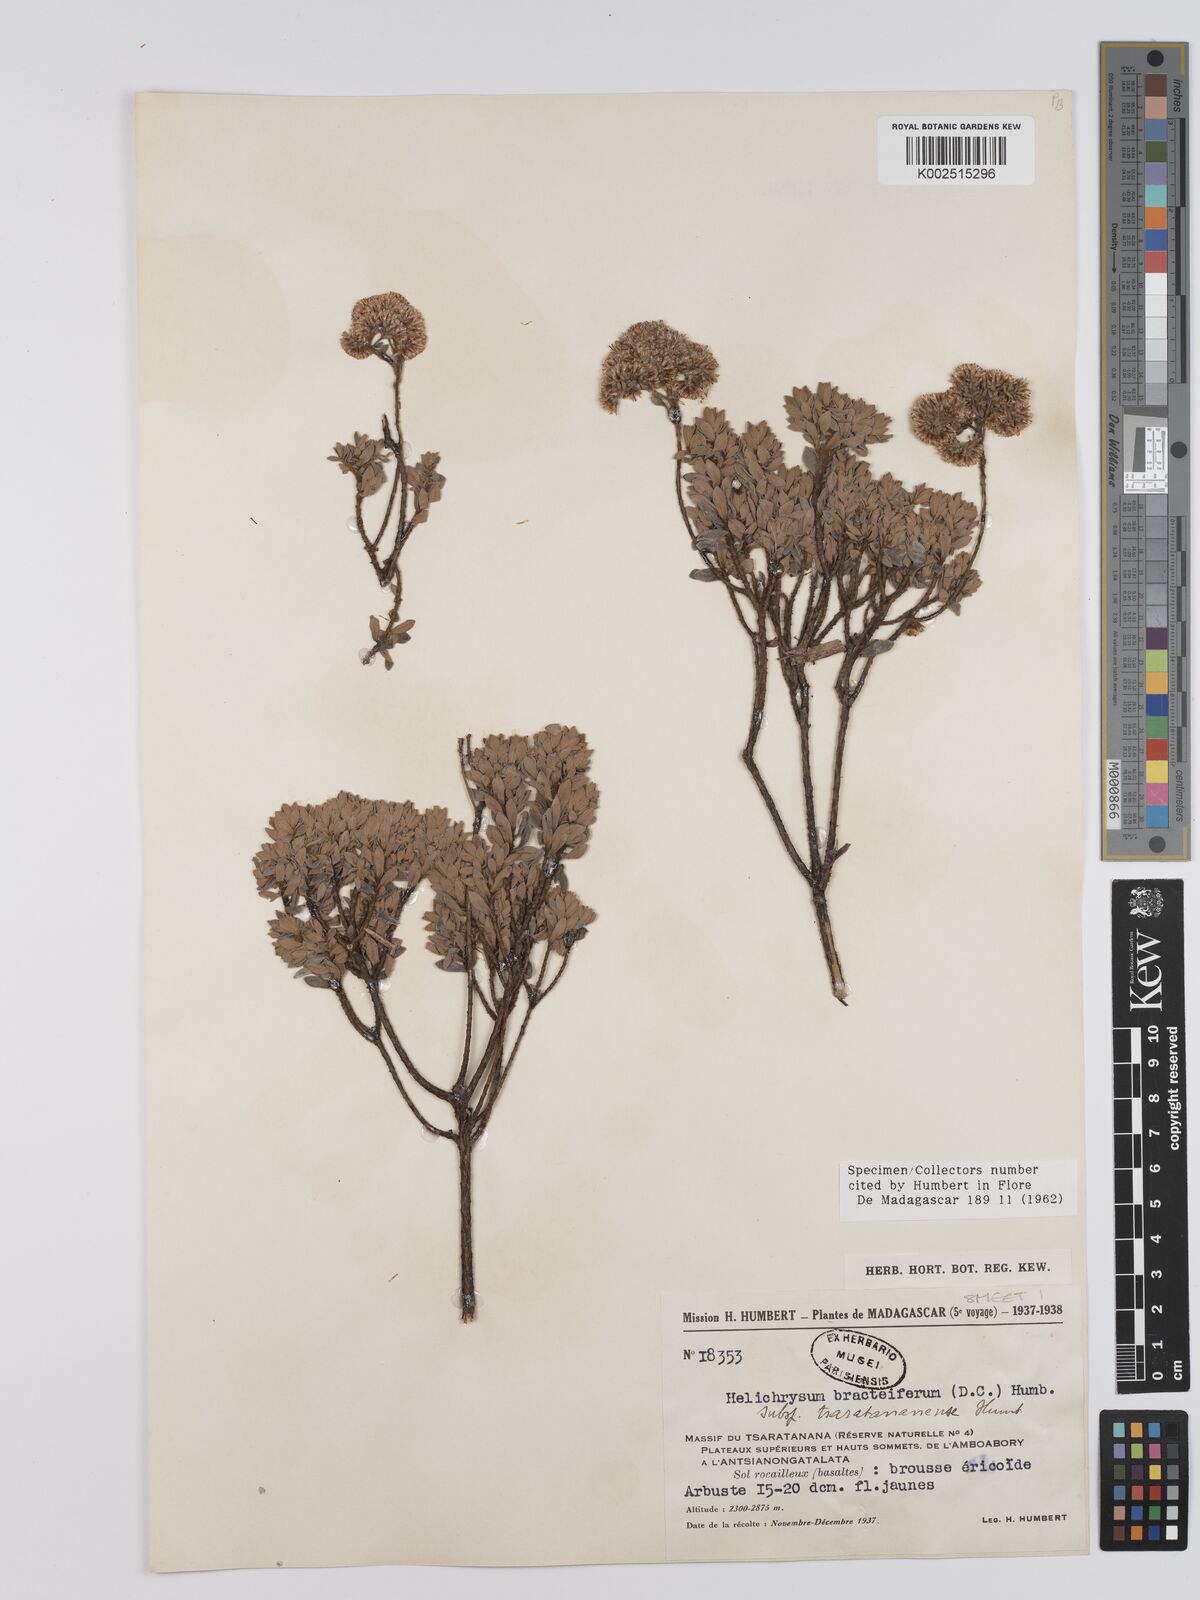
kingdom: Plantae
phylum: Tracheophyta
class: Magnoliopsida
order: Asterales
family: Asteraceae
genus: Helichrysum
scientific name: Helichrysum bracteiferum
